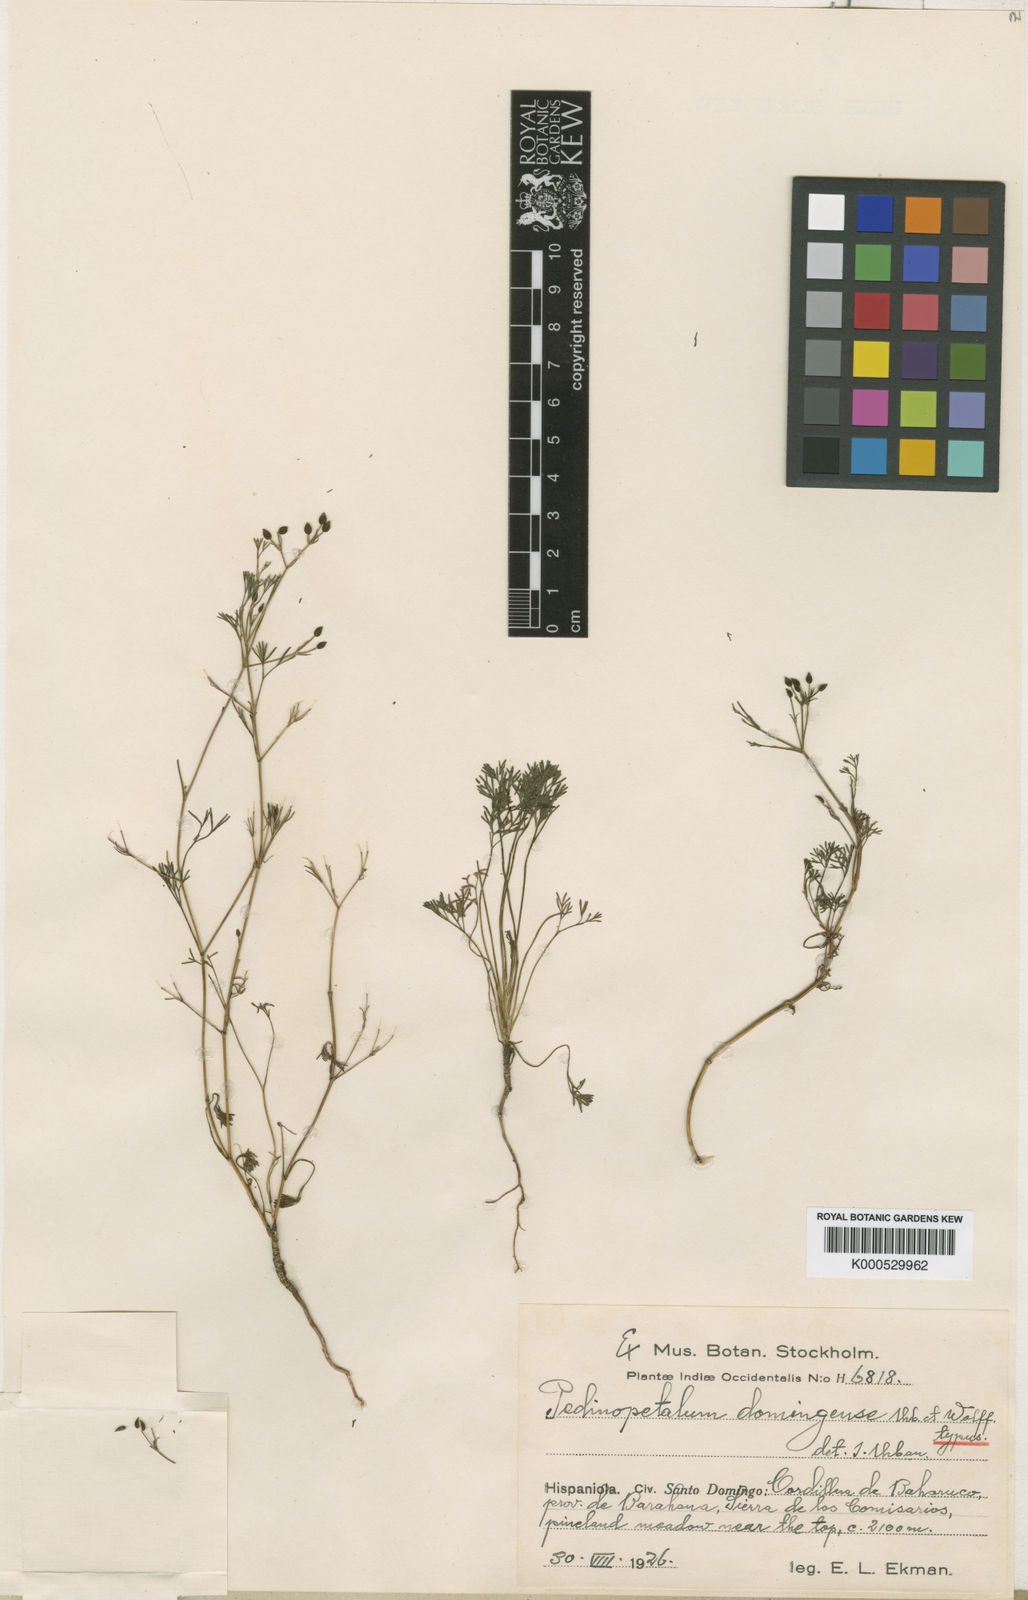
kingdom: Plantae
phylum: Tracheophyta
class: Magnoliopsida
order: Apiales
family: Apiaceae
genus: Pedinopetalum
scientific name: Pedinopetalum domingense
